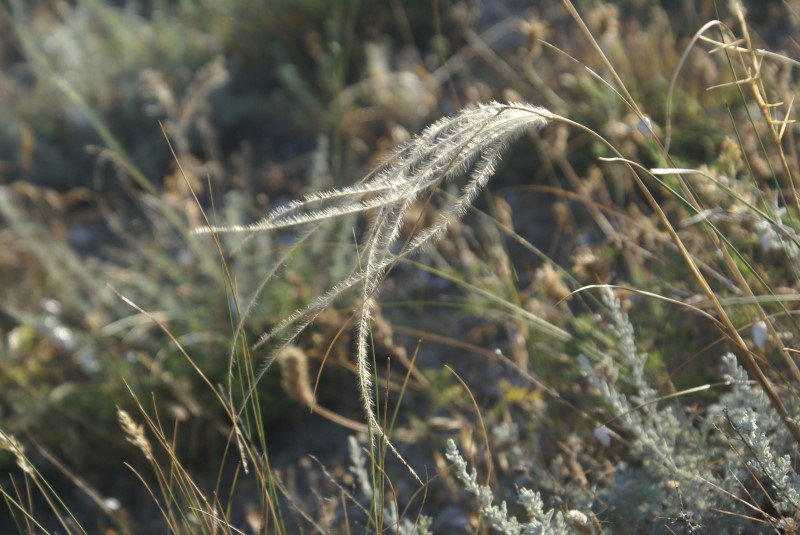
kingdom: Plantae
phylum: Tracheophyta
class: Liliopsida
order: Poales
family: Poaceae
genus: Stipa
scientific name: Stipa
